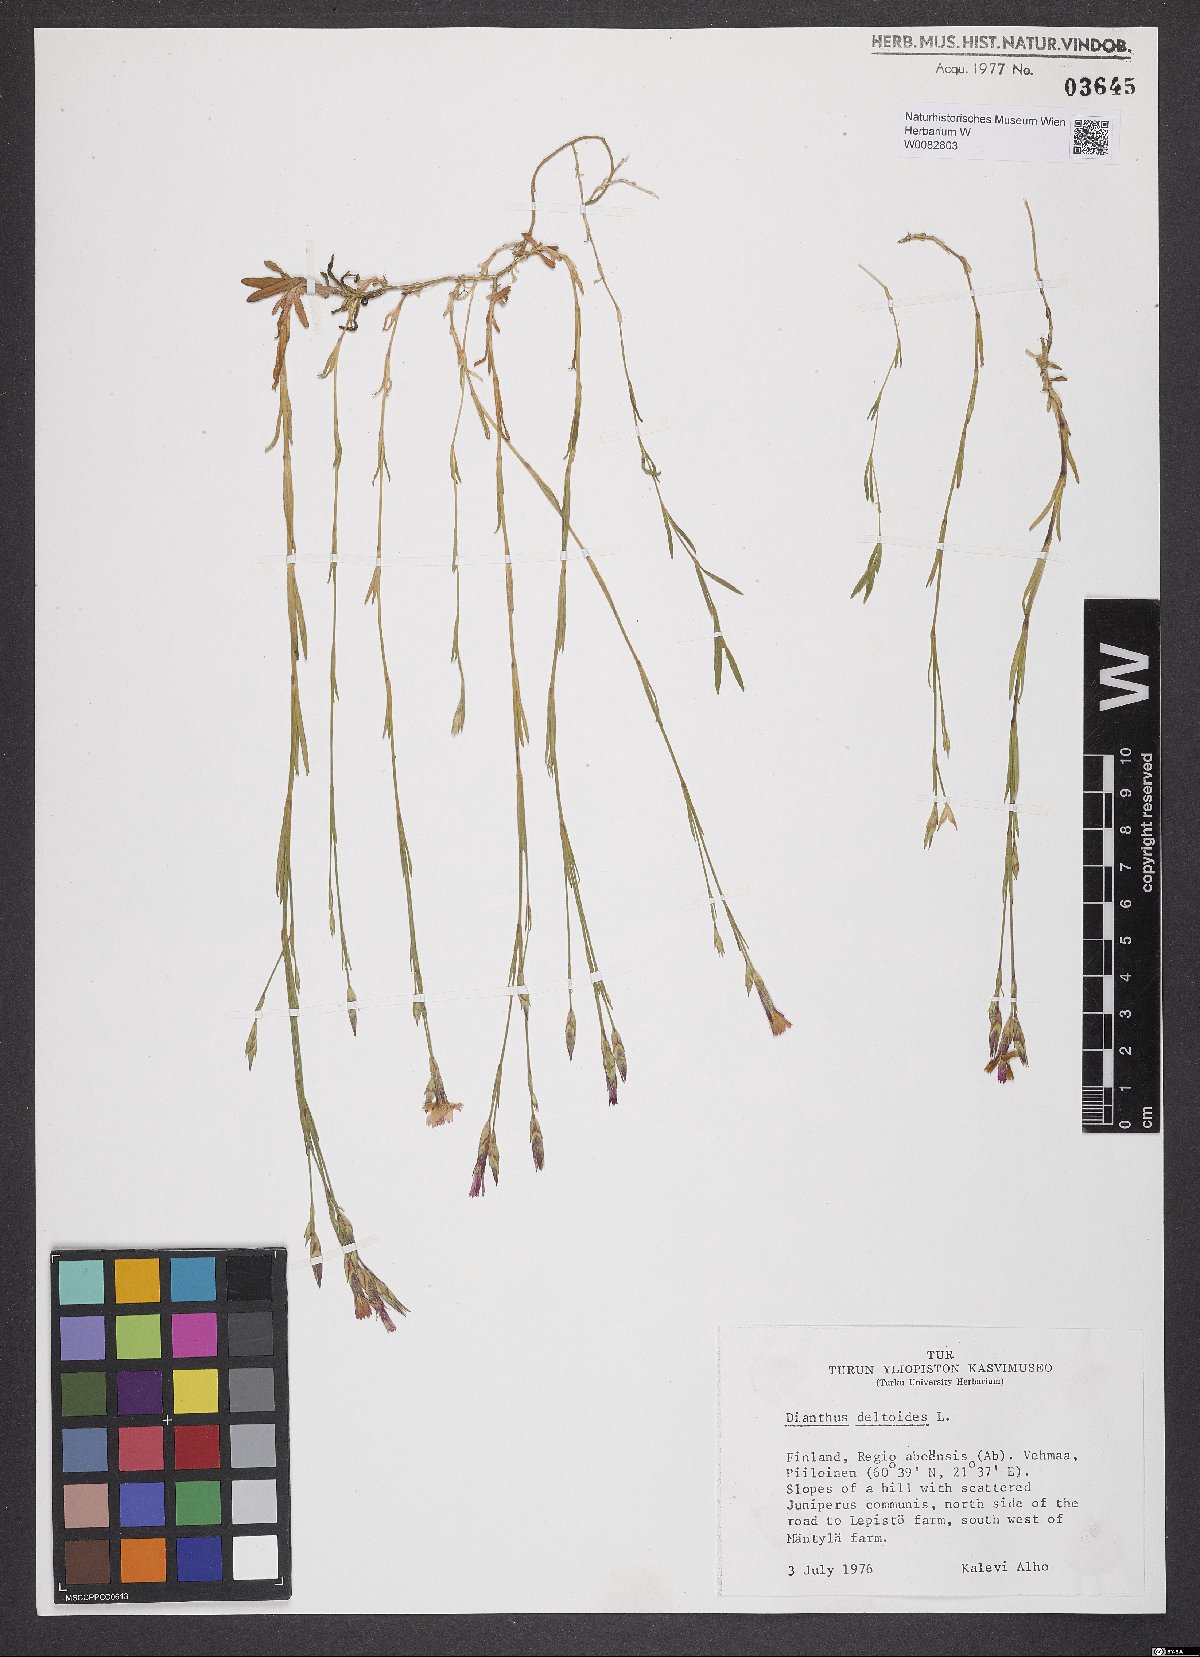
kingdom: Plantae
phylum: Tracheophyta
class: Magnoliopsida
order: Caryophyllales
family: Caryophyllaceae
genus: Dianthus
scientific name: Dianthus deltoides
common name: Maiden pink
